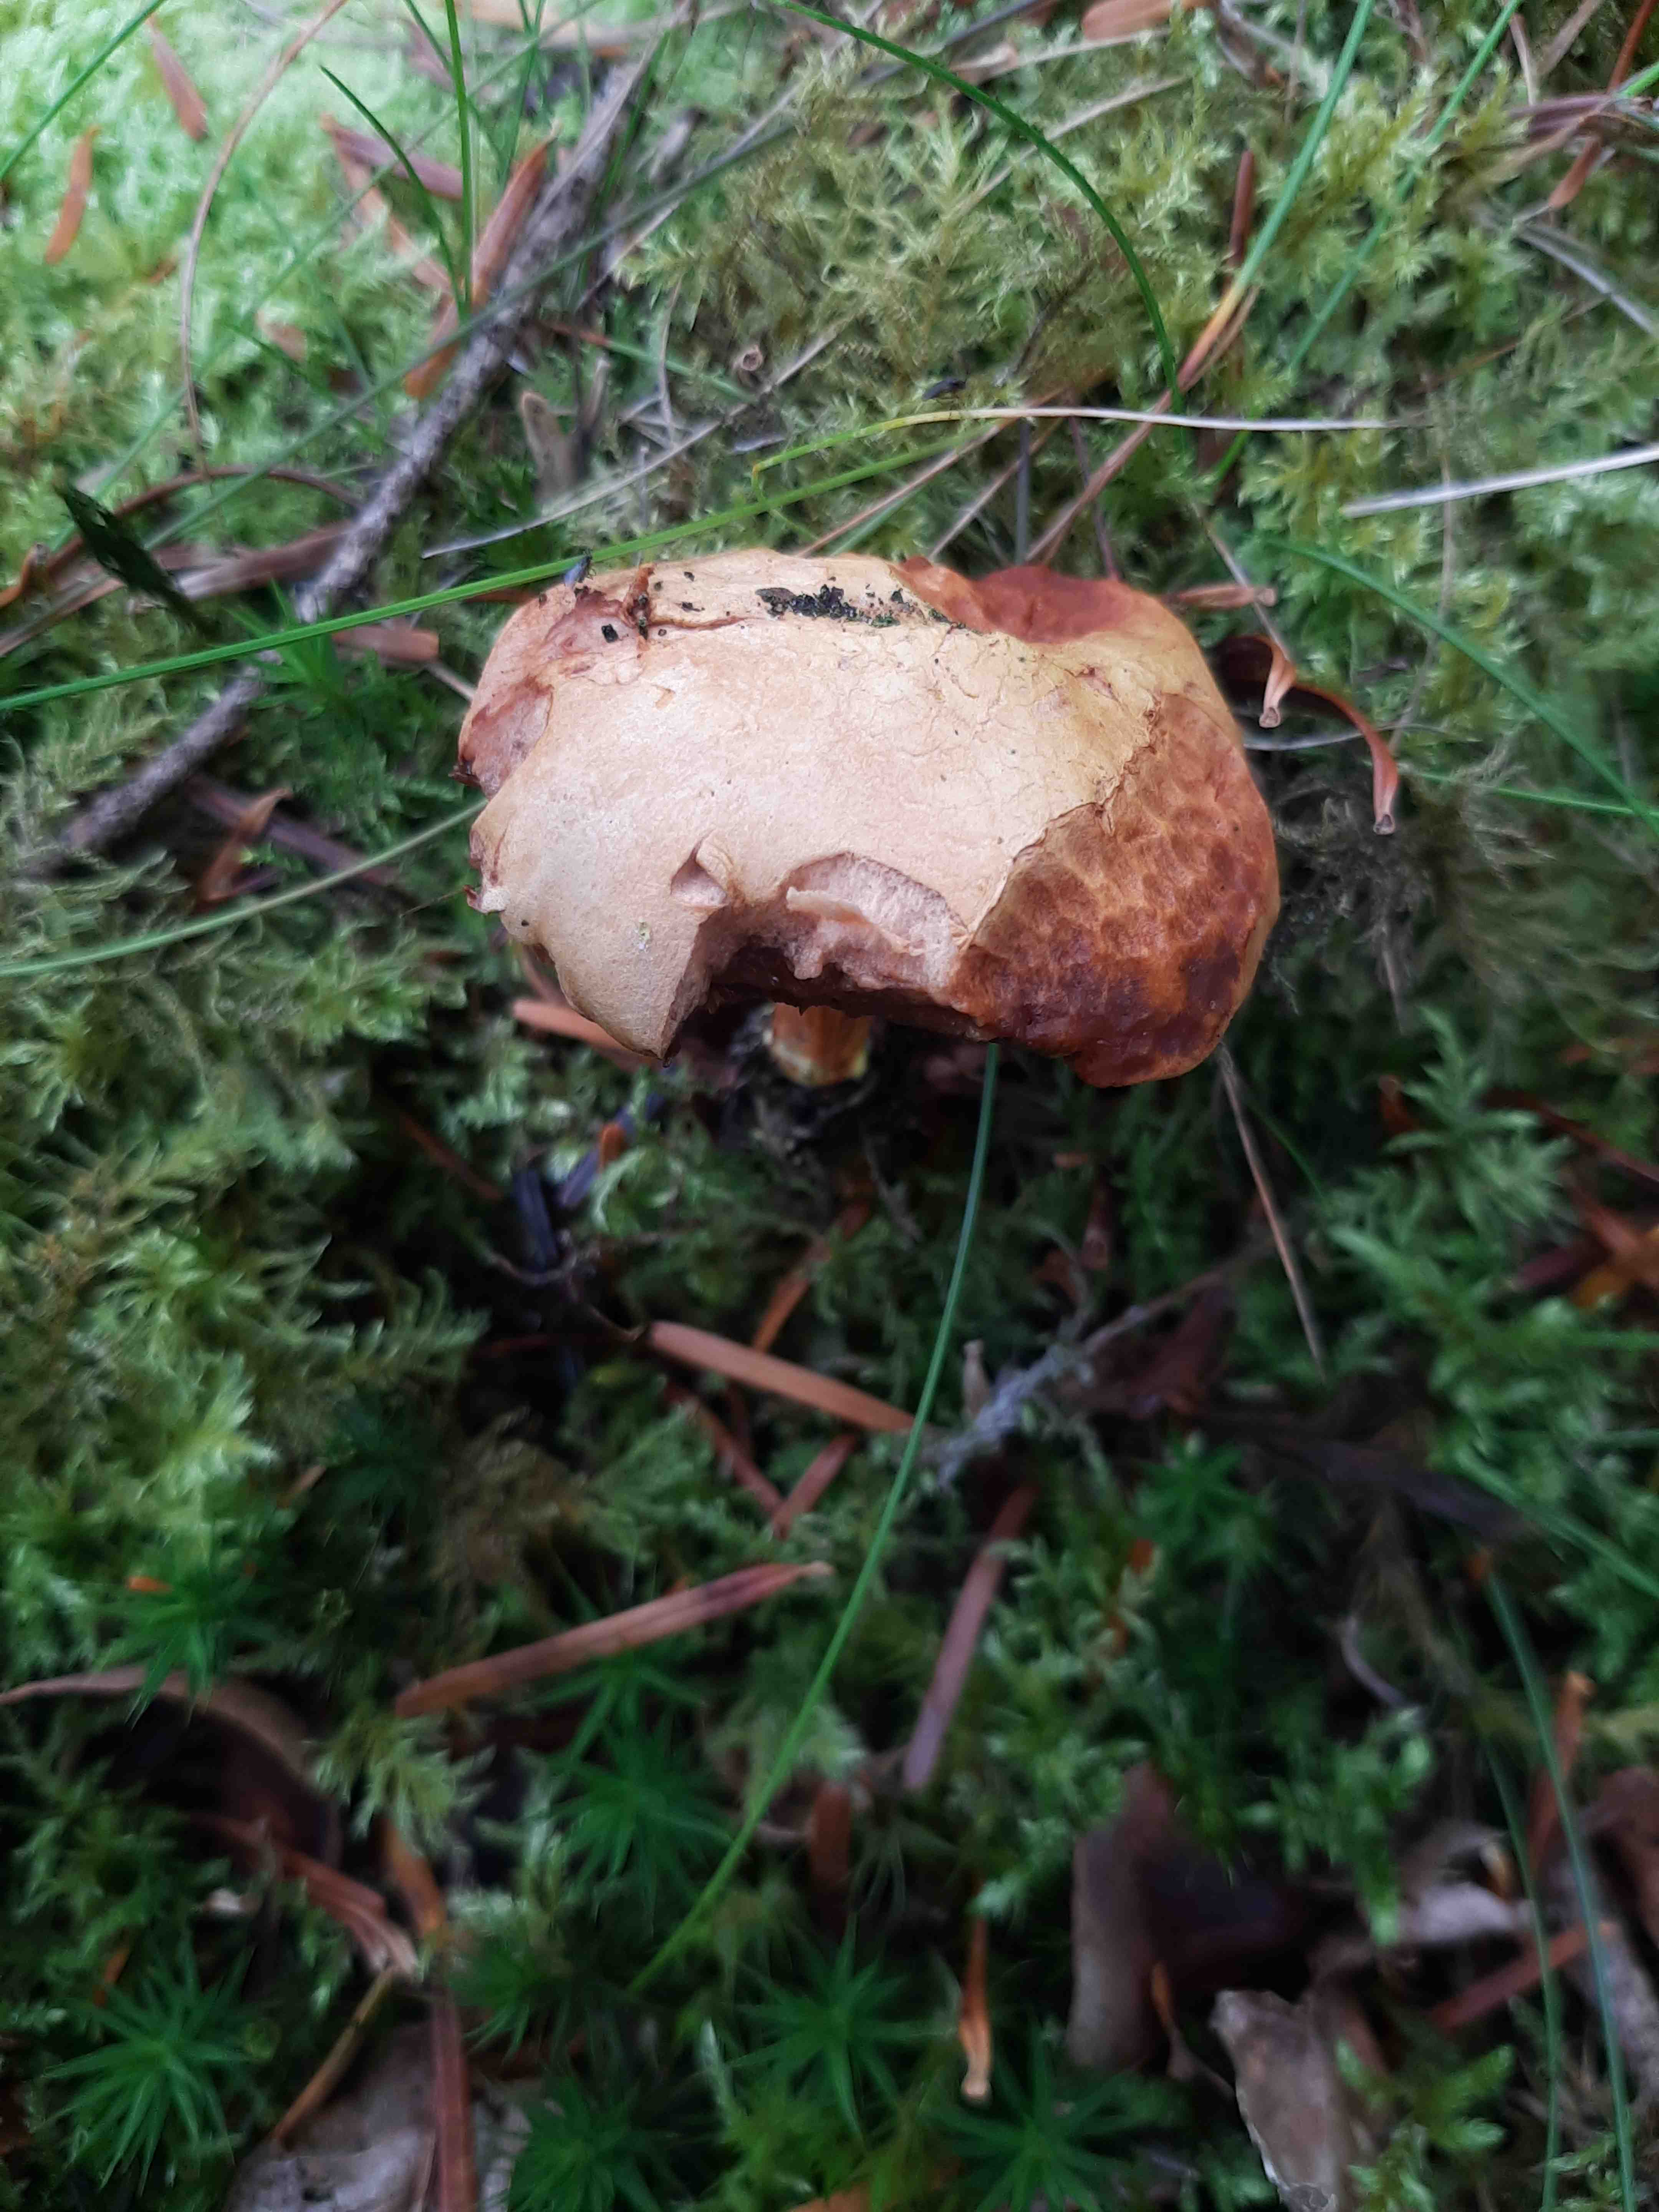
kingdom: Fungi
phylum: Basidiomycota
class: Agaricomycetes
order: Boletales
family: Boletaceae
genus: Chalciporus
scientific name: Chalciporus piperatus
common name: peberrørhat
